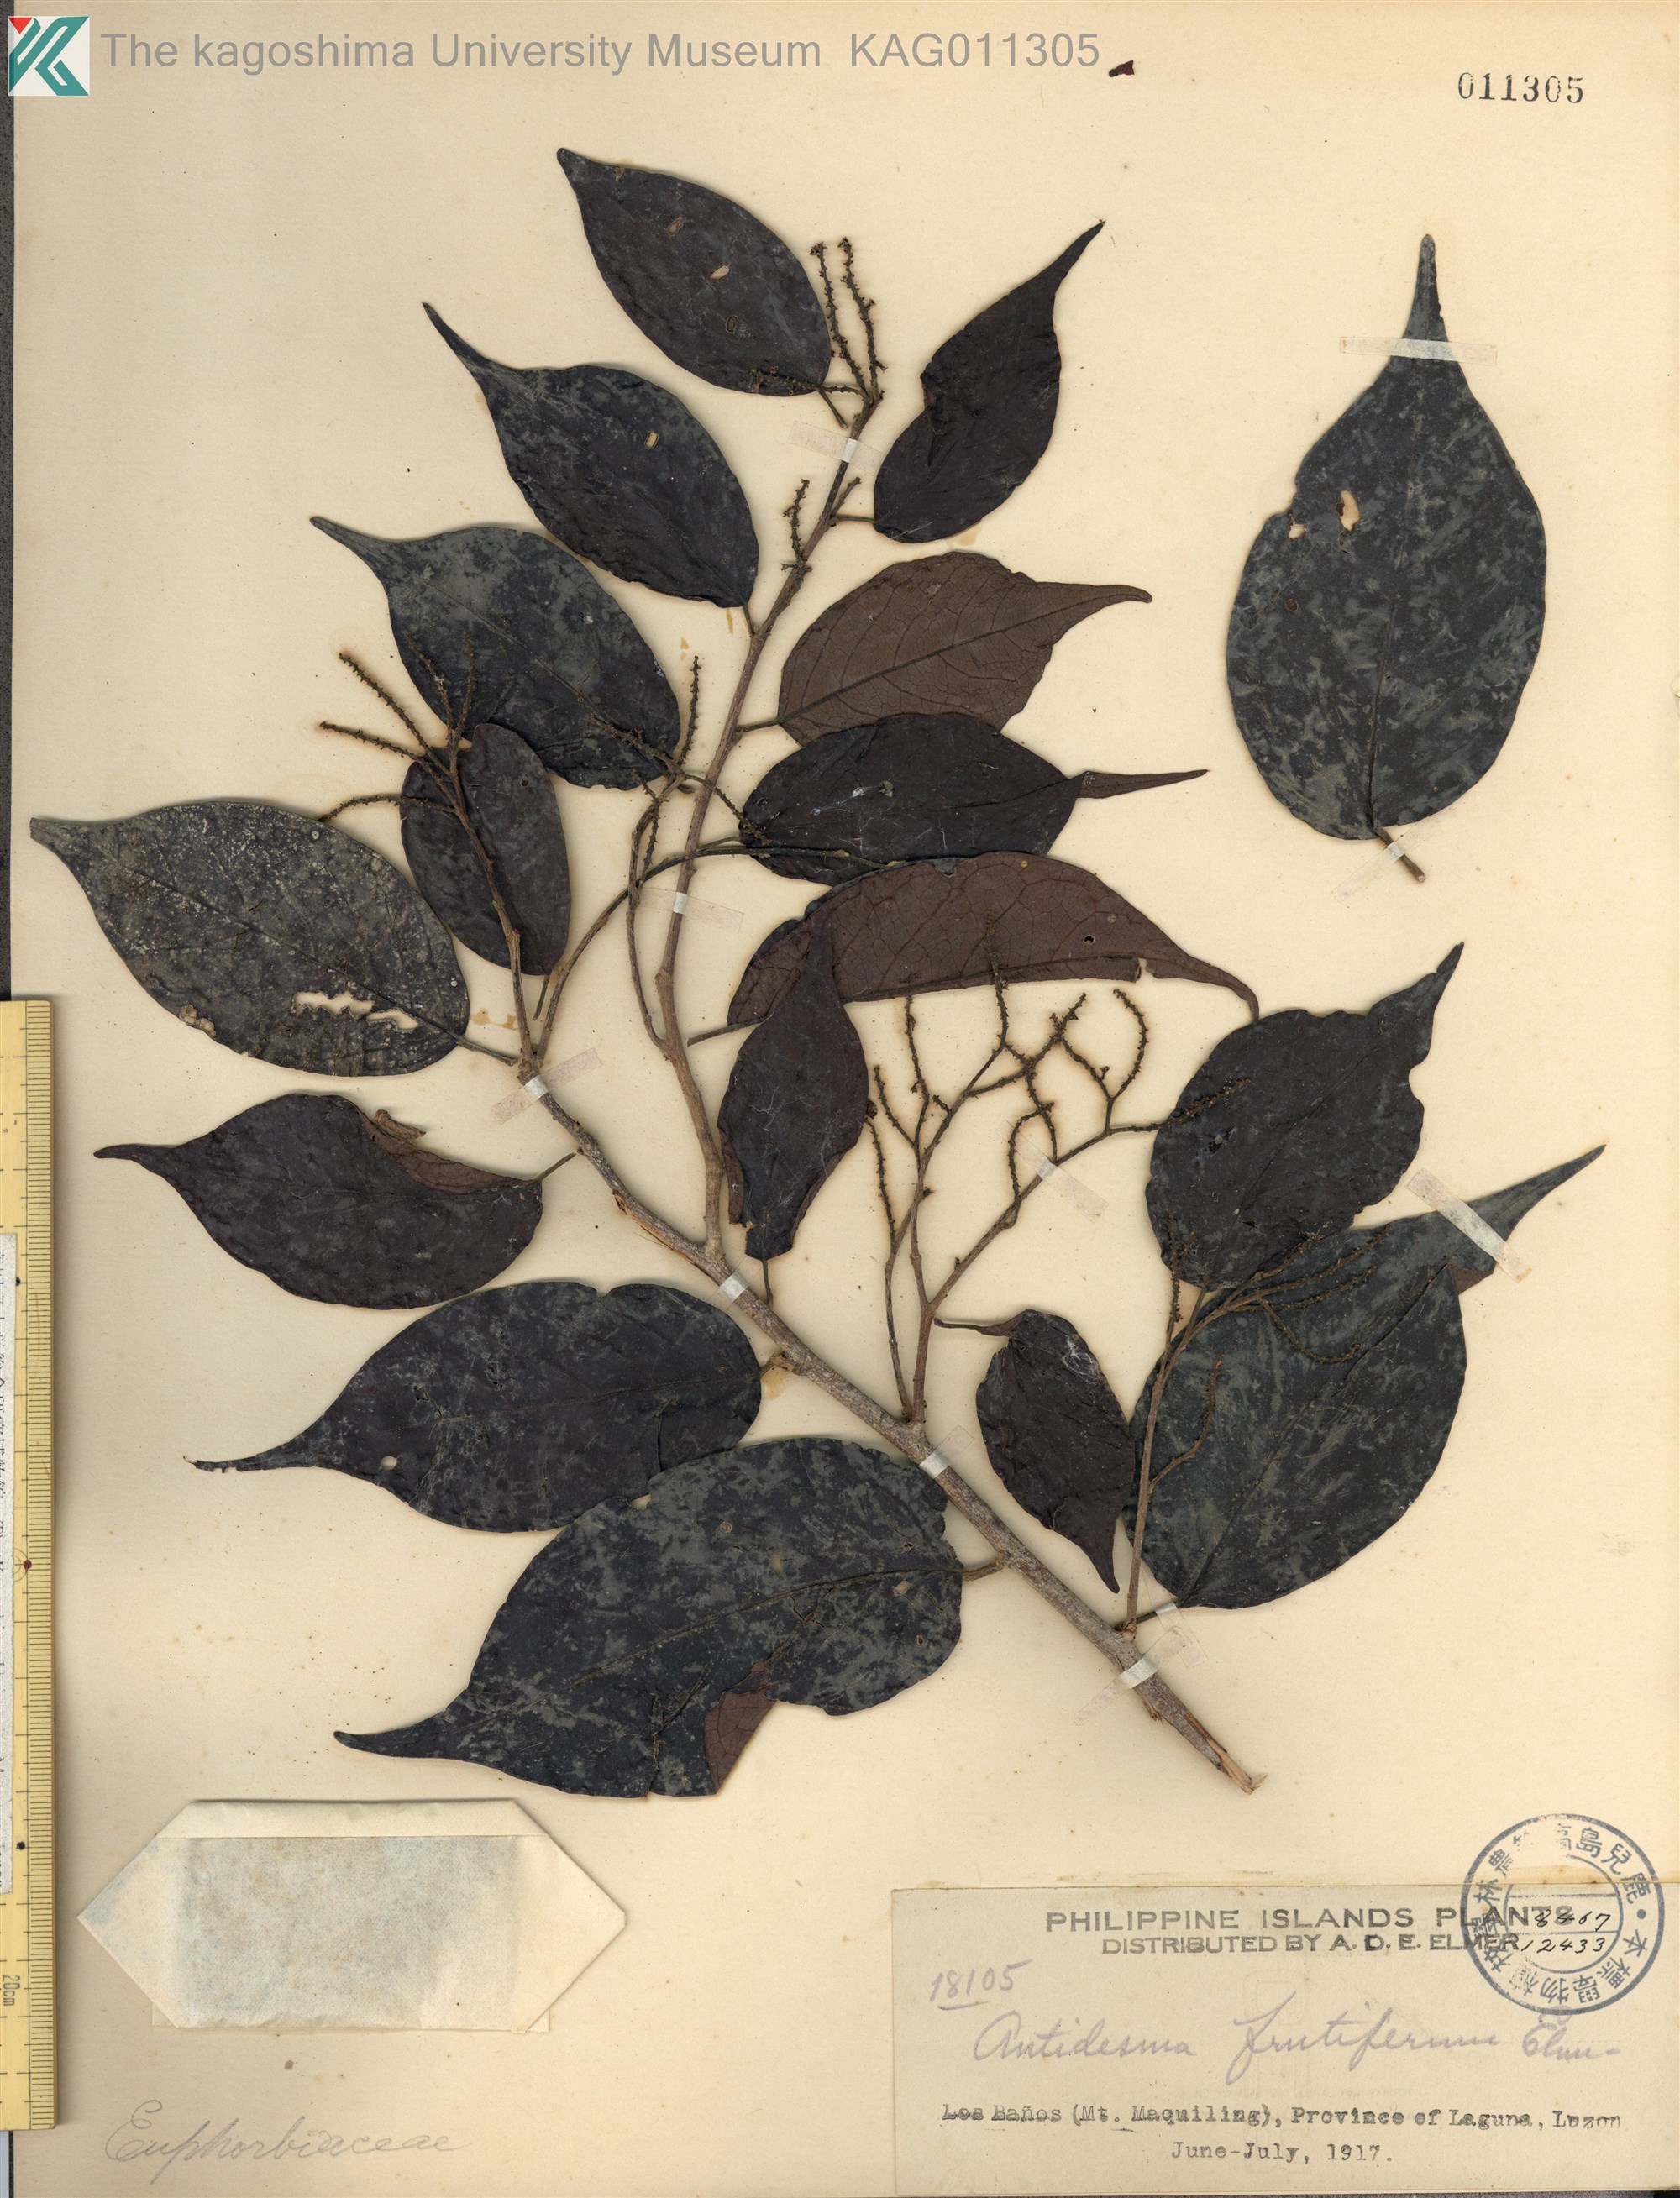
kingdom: Plantae
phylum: Tracheophyta
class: Magnoliopsida
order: Malpighiales
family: Phyllanthaceae
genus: Antidesma
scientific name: Antidesma microcarpum
